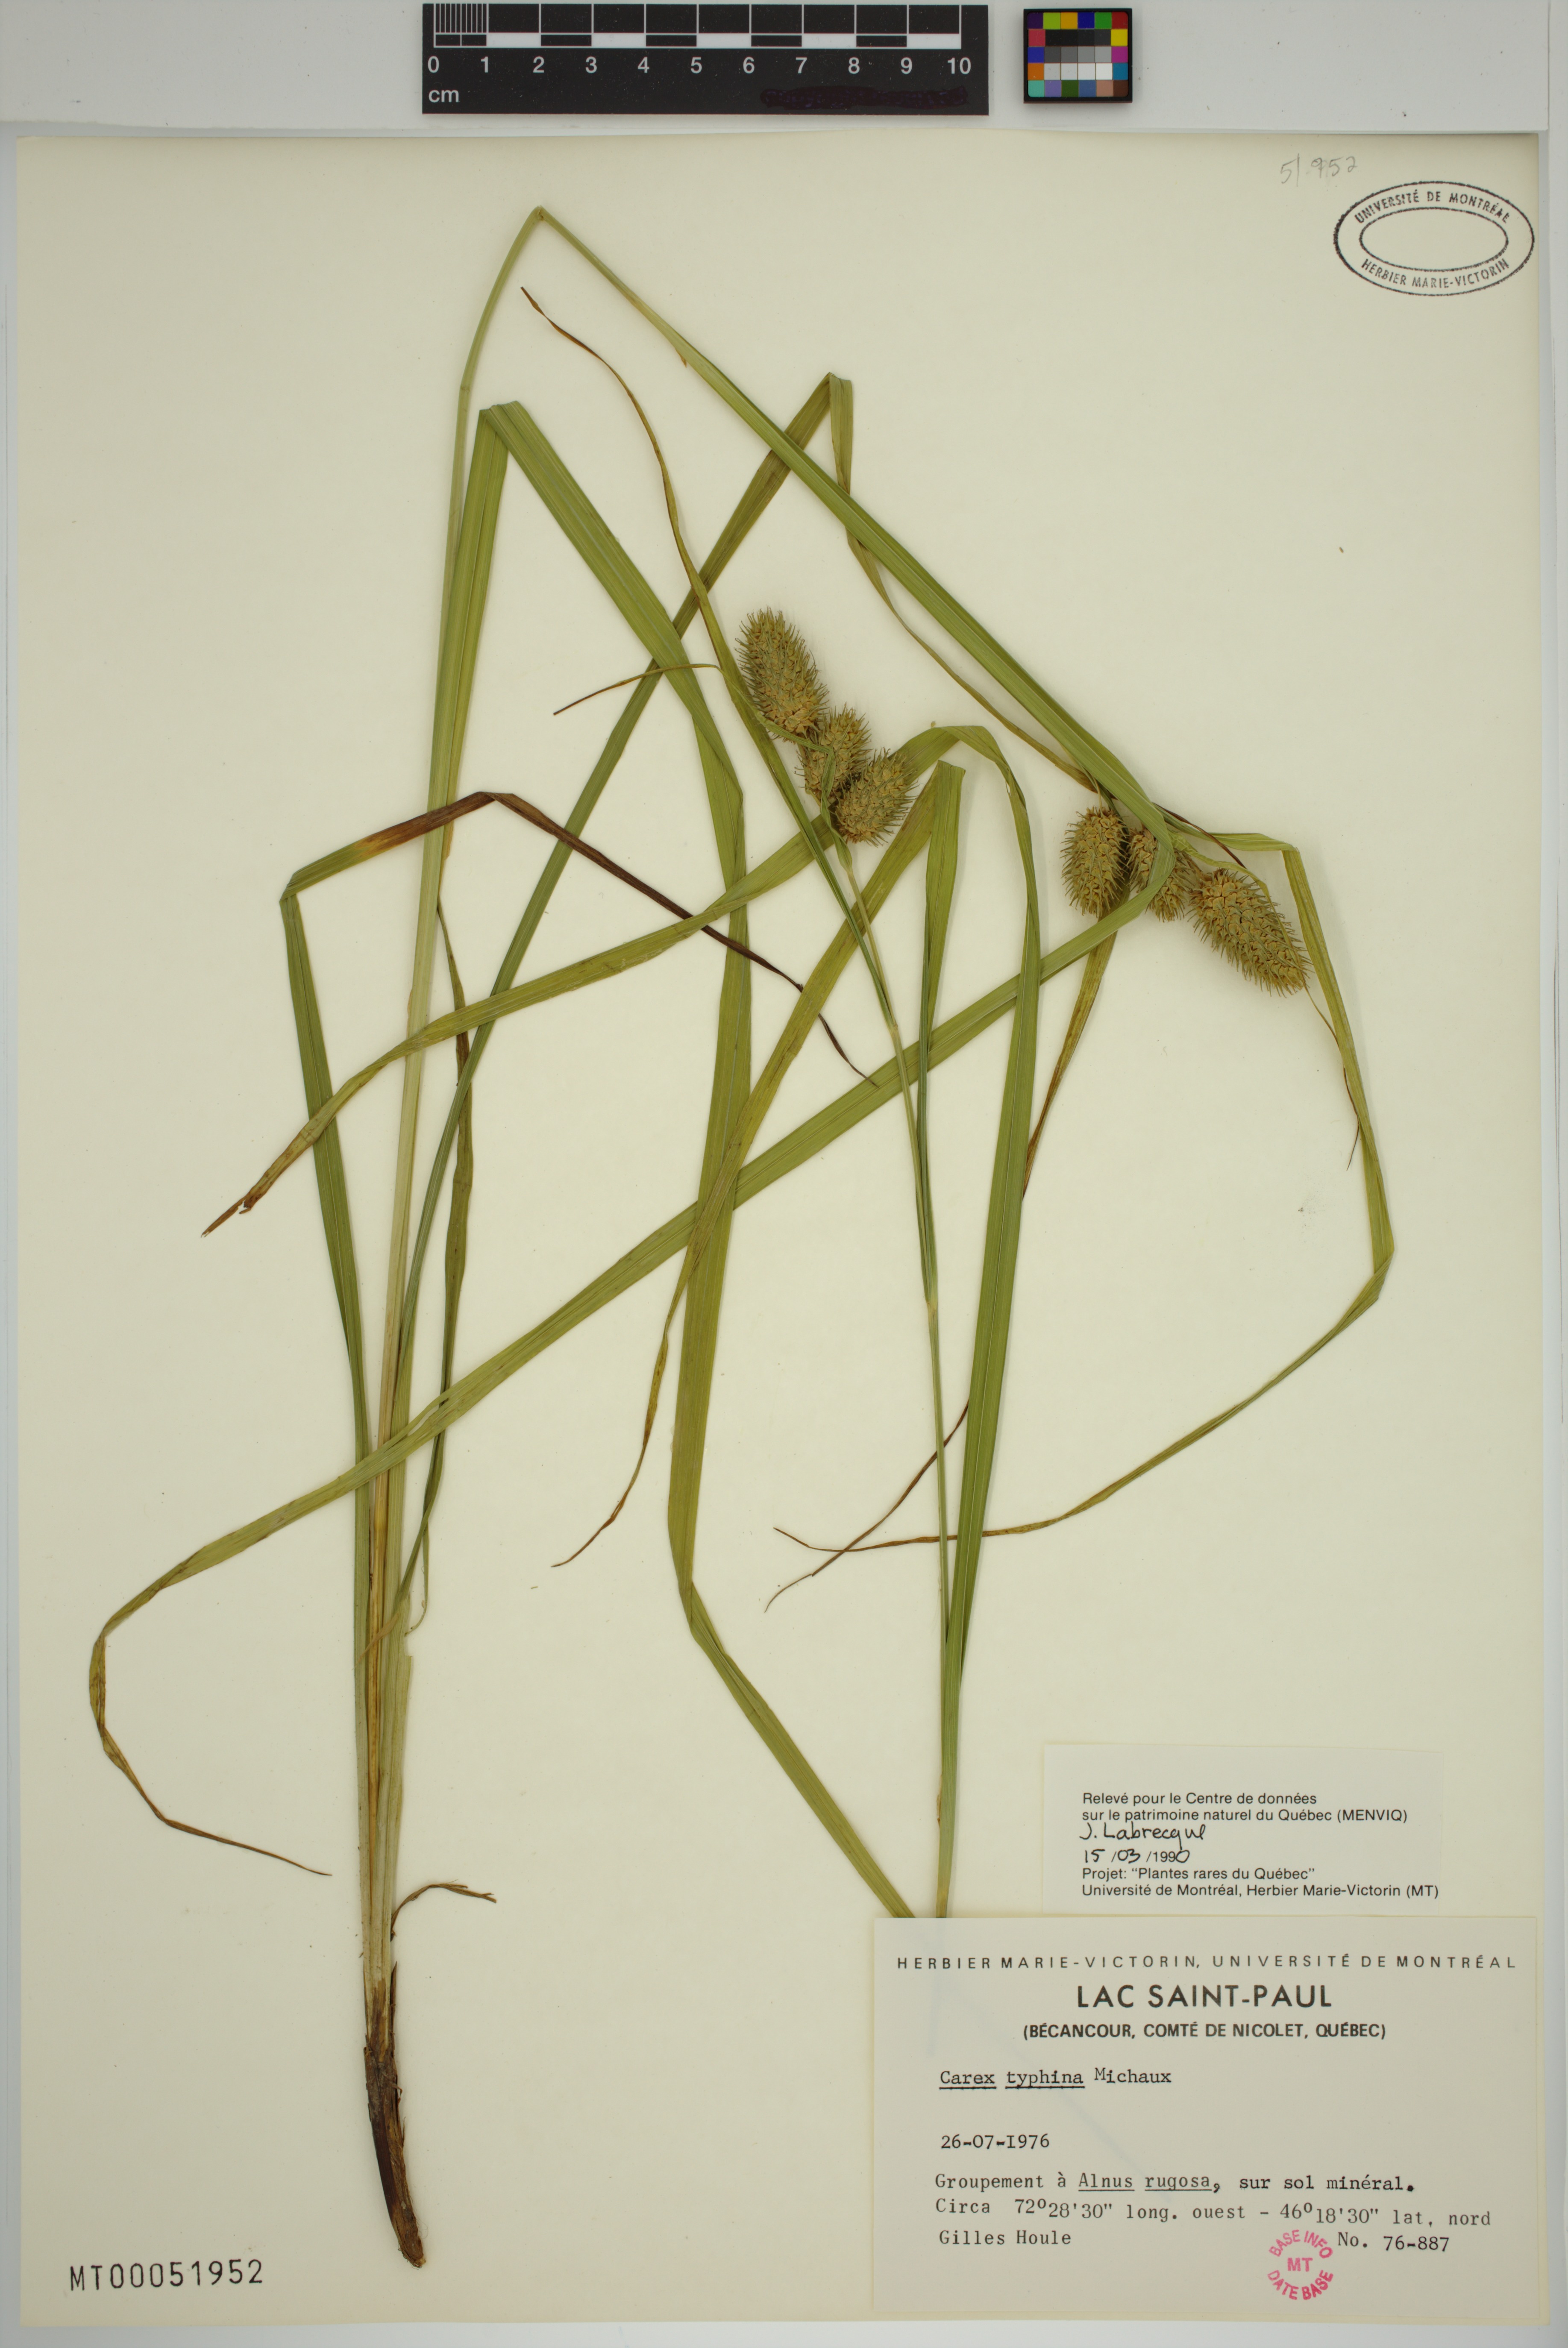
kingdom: Plantae
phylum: Tracheophyta
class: Liliopsida
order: Poales
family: Cyperaceae
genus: Carex
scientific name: Carex typhina
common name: Cattail sedge
